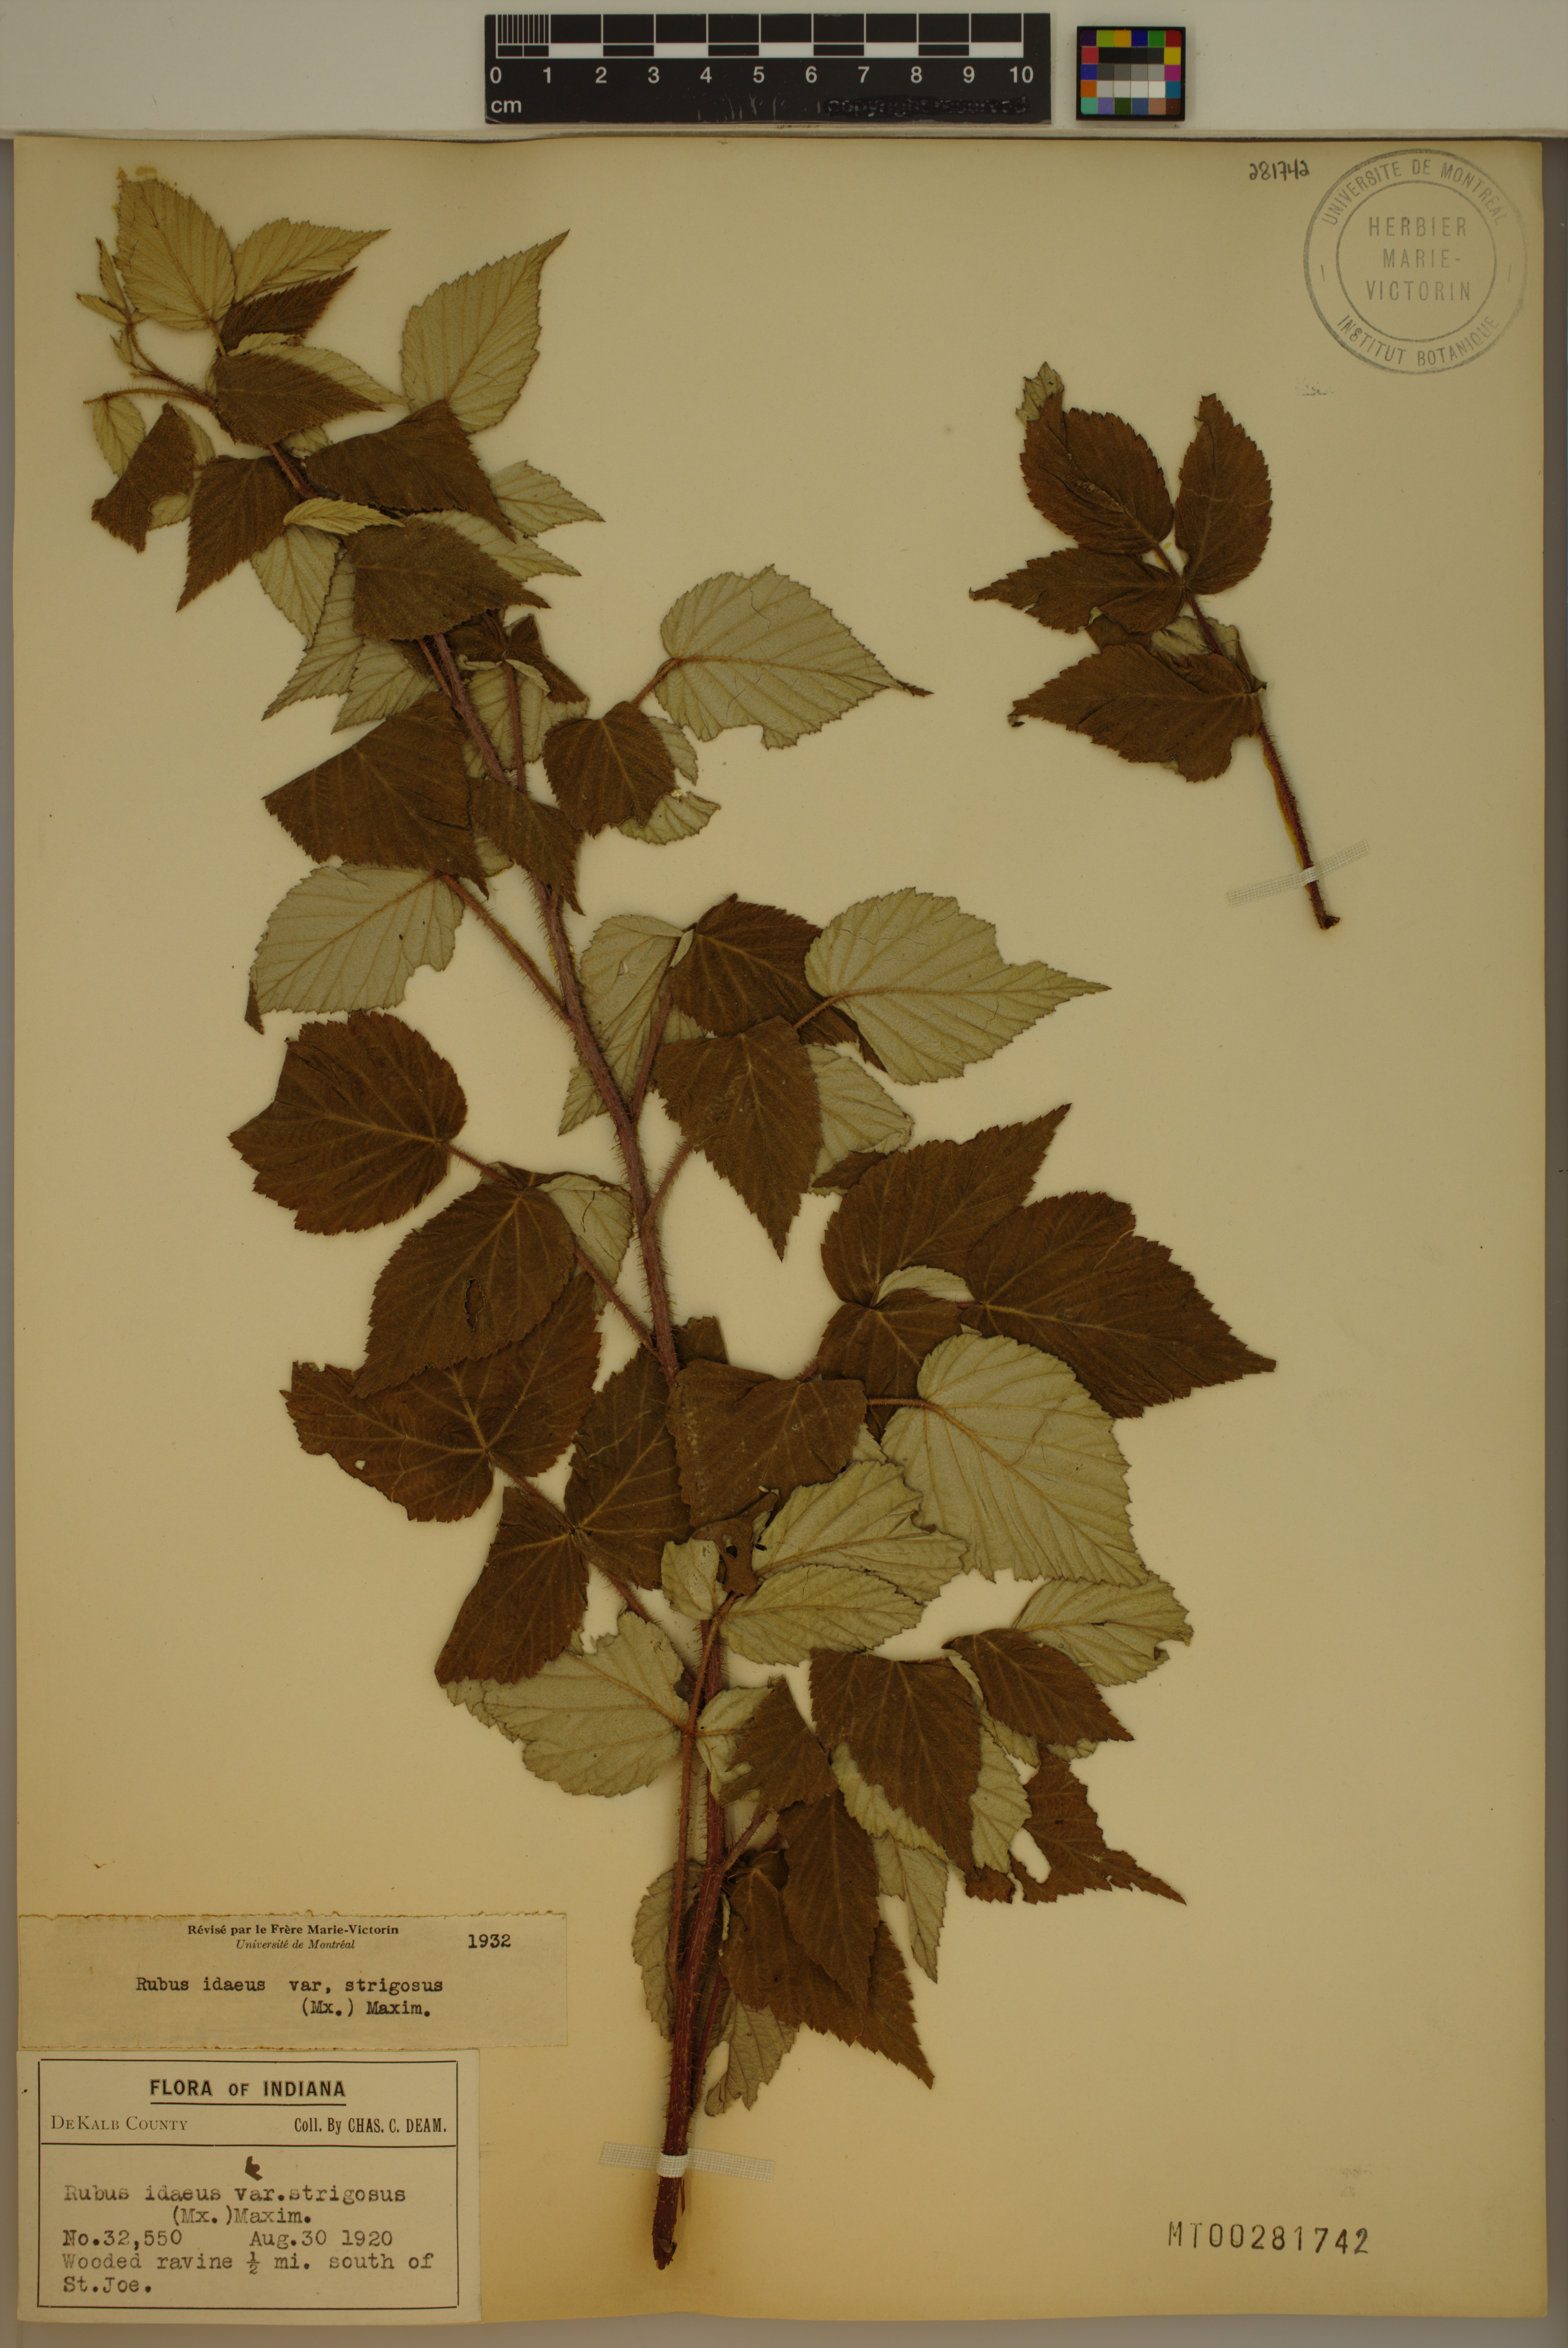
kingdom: Plantae
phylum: Tracheophyta
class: Magnoliopsida
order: Rosales
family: Rosaceae
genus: Rubus
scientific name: Rubus idaeus
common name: Raspberry
